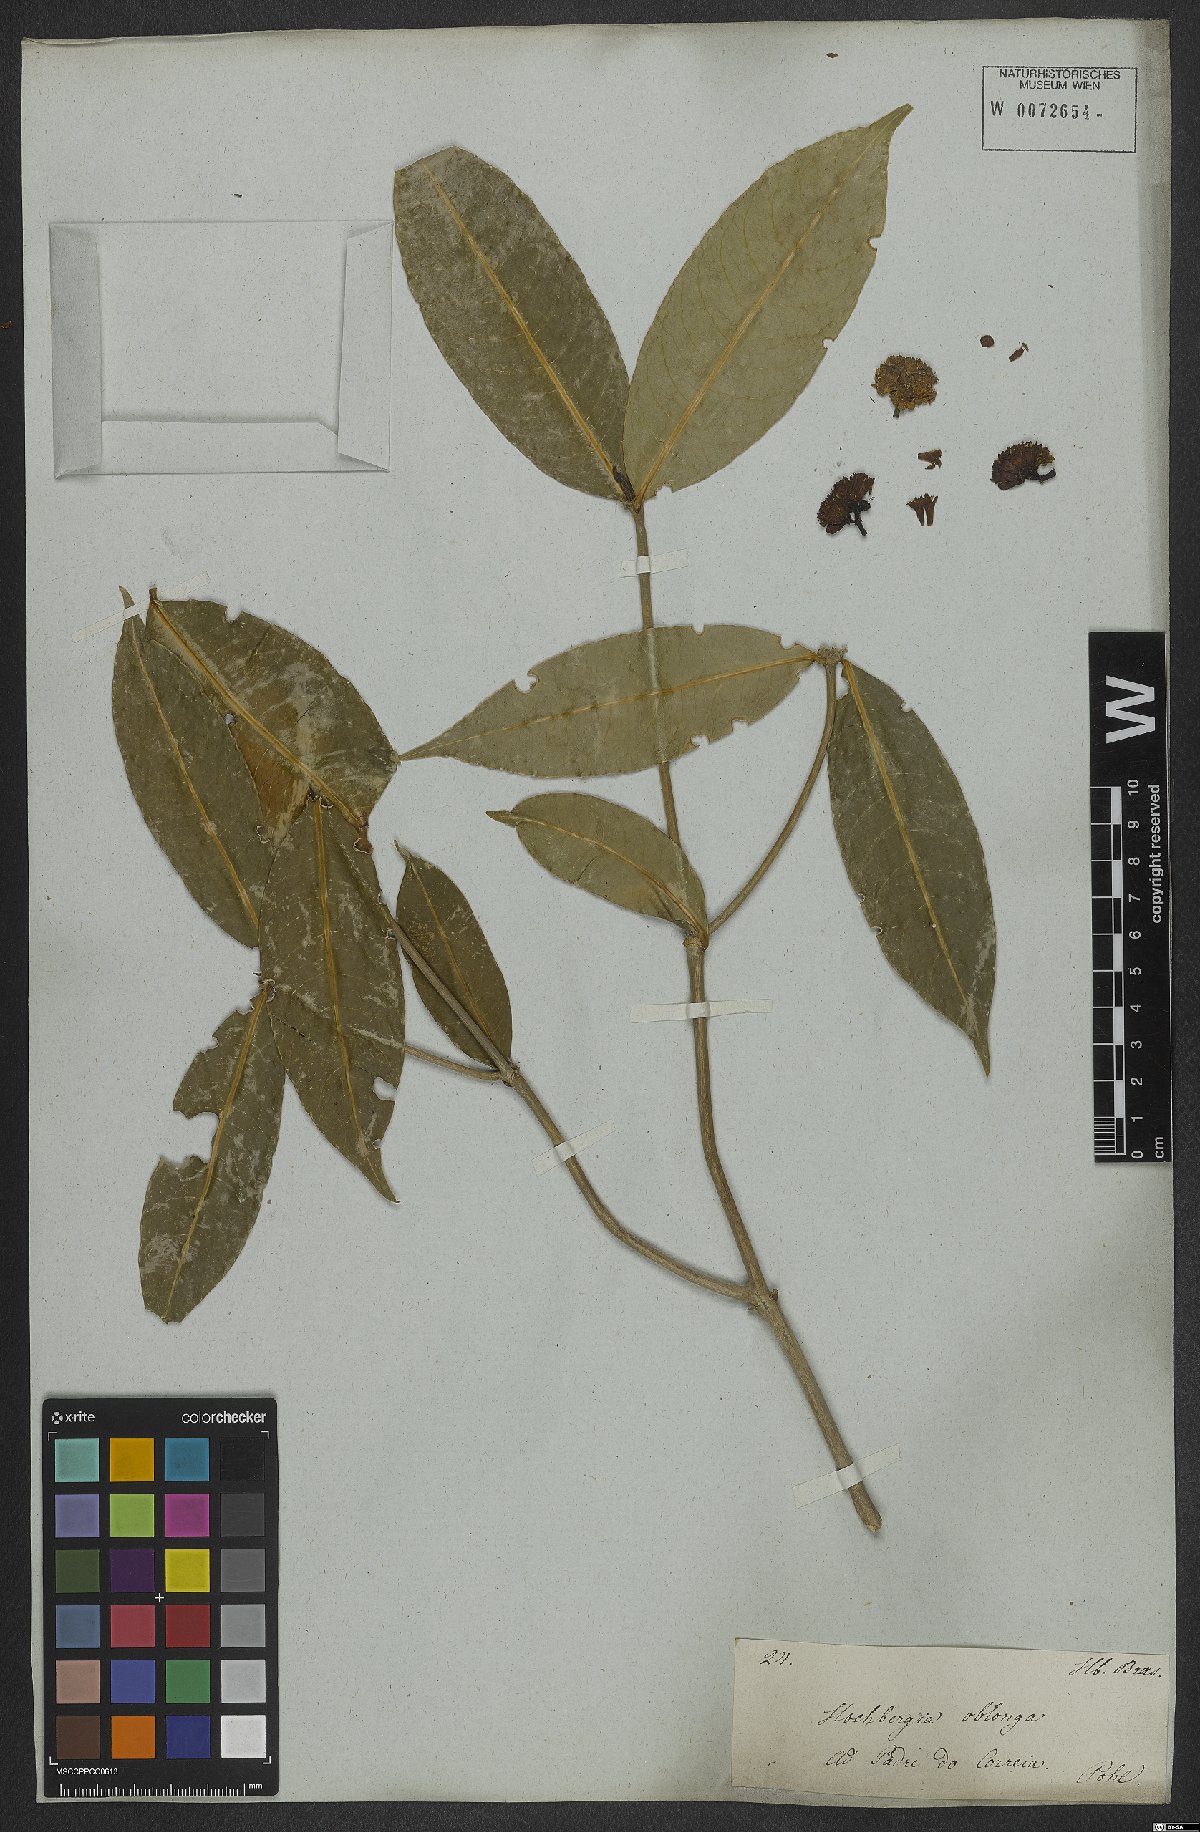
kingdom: Plantae
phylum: Tracheophyta
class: Magnoliopsida
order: Gentianales
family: Rubiaceae
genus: Rudgea
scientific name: Rudgea sessilis
